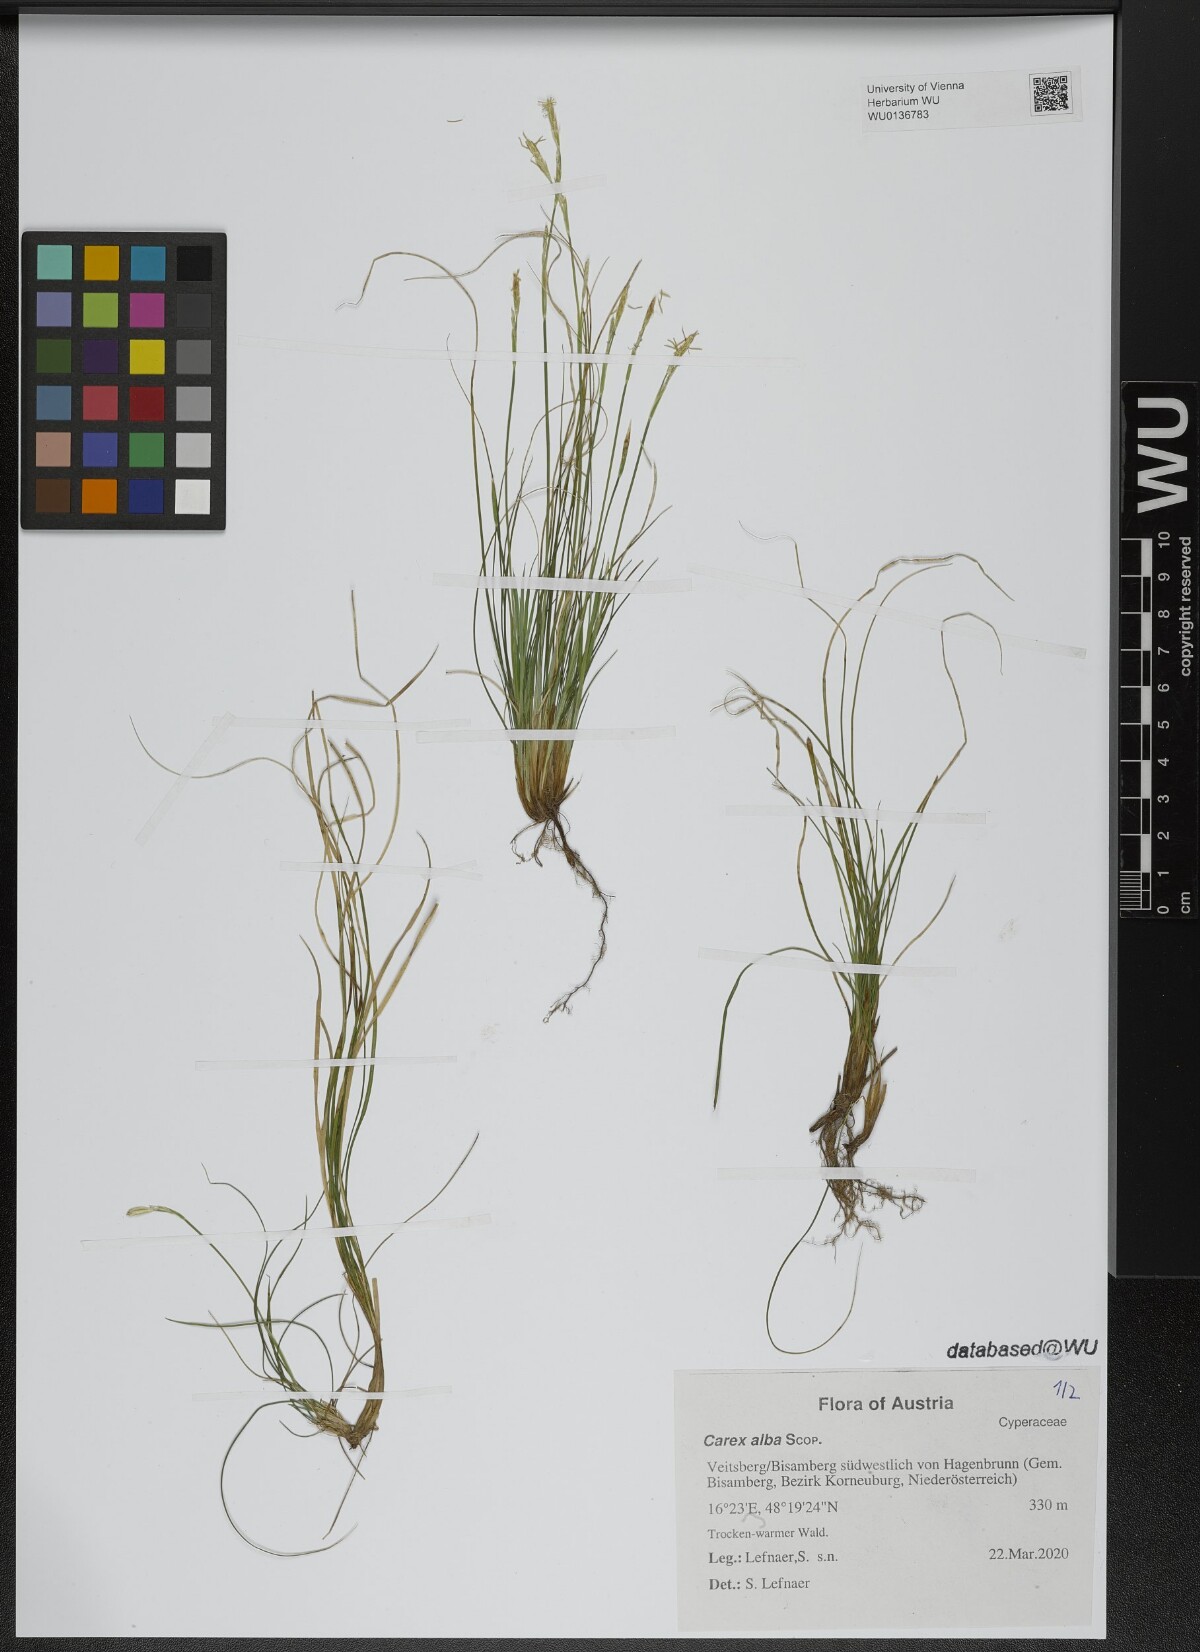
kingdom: Plantae
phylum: Tracheophyta
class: Liliopsida
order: Poales
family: Cyperaceae
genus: Carex
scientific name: Carex alba
